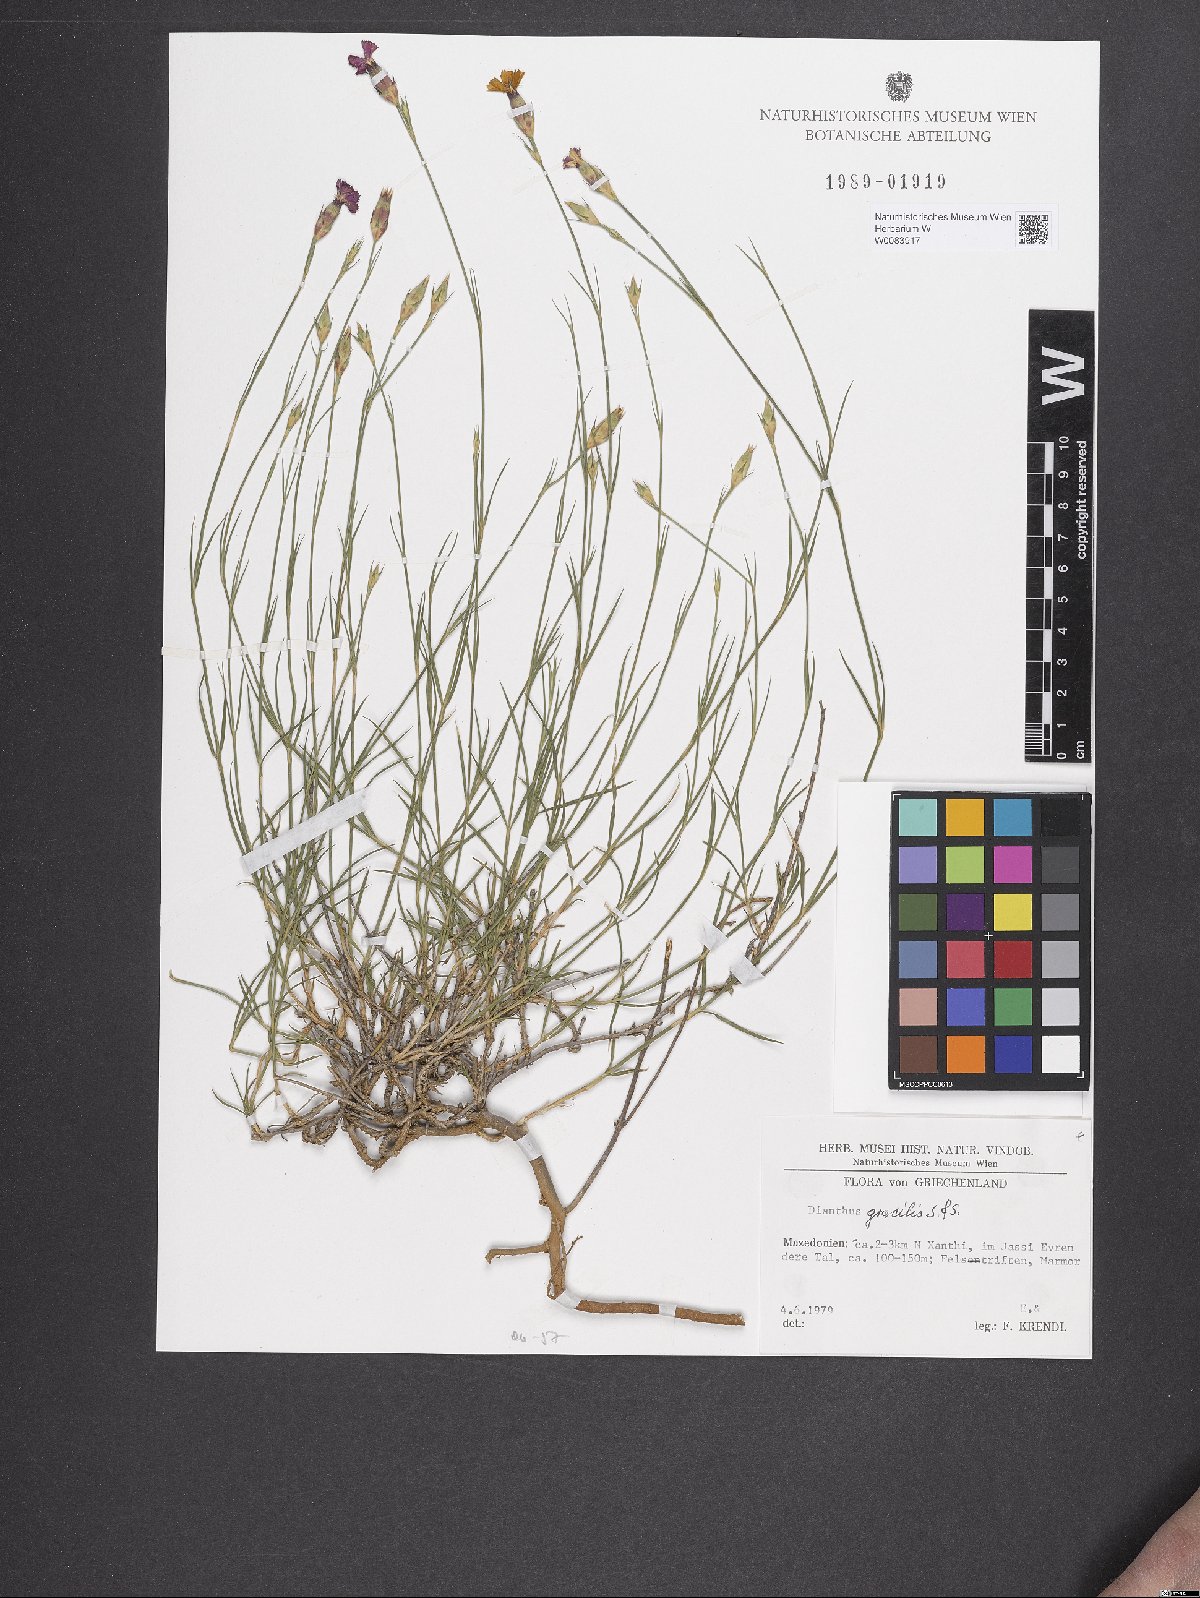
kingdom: Plantae
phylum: Tracheophyta
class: Magnoliopsida
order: Caryophyllales
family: Caryophyllaceae
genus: Dianthus
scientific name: Dianthus gracilis
